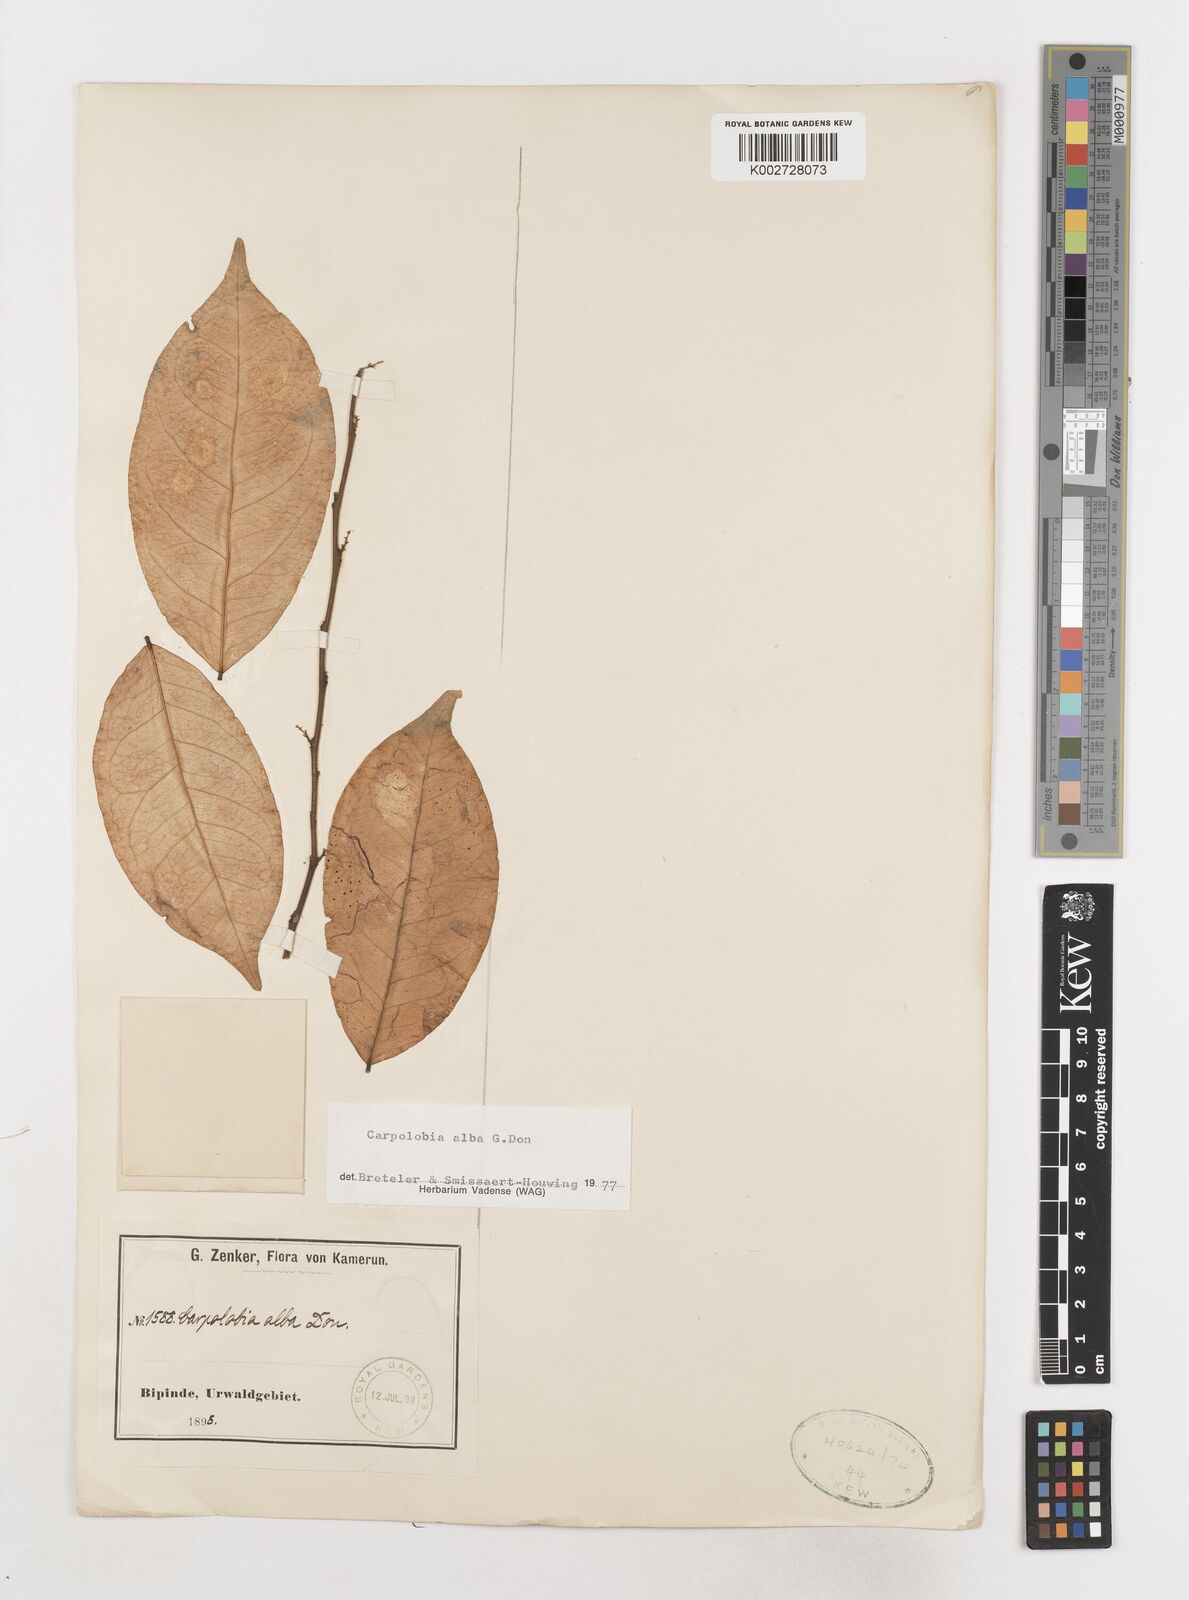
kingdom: Plantae
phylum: Tracheophyta
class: Magnoliopsida
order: Fabales
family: Polygalaceae
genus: Carpolobia
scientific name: Carpolobia alba
